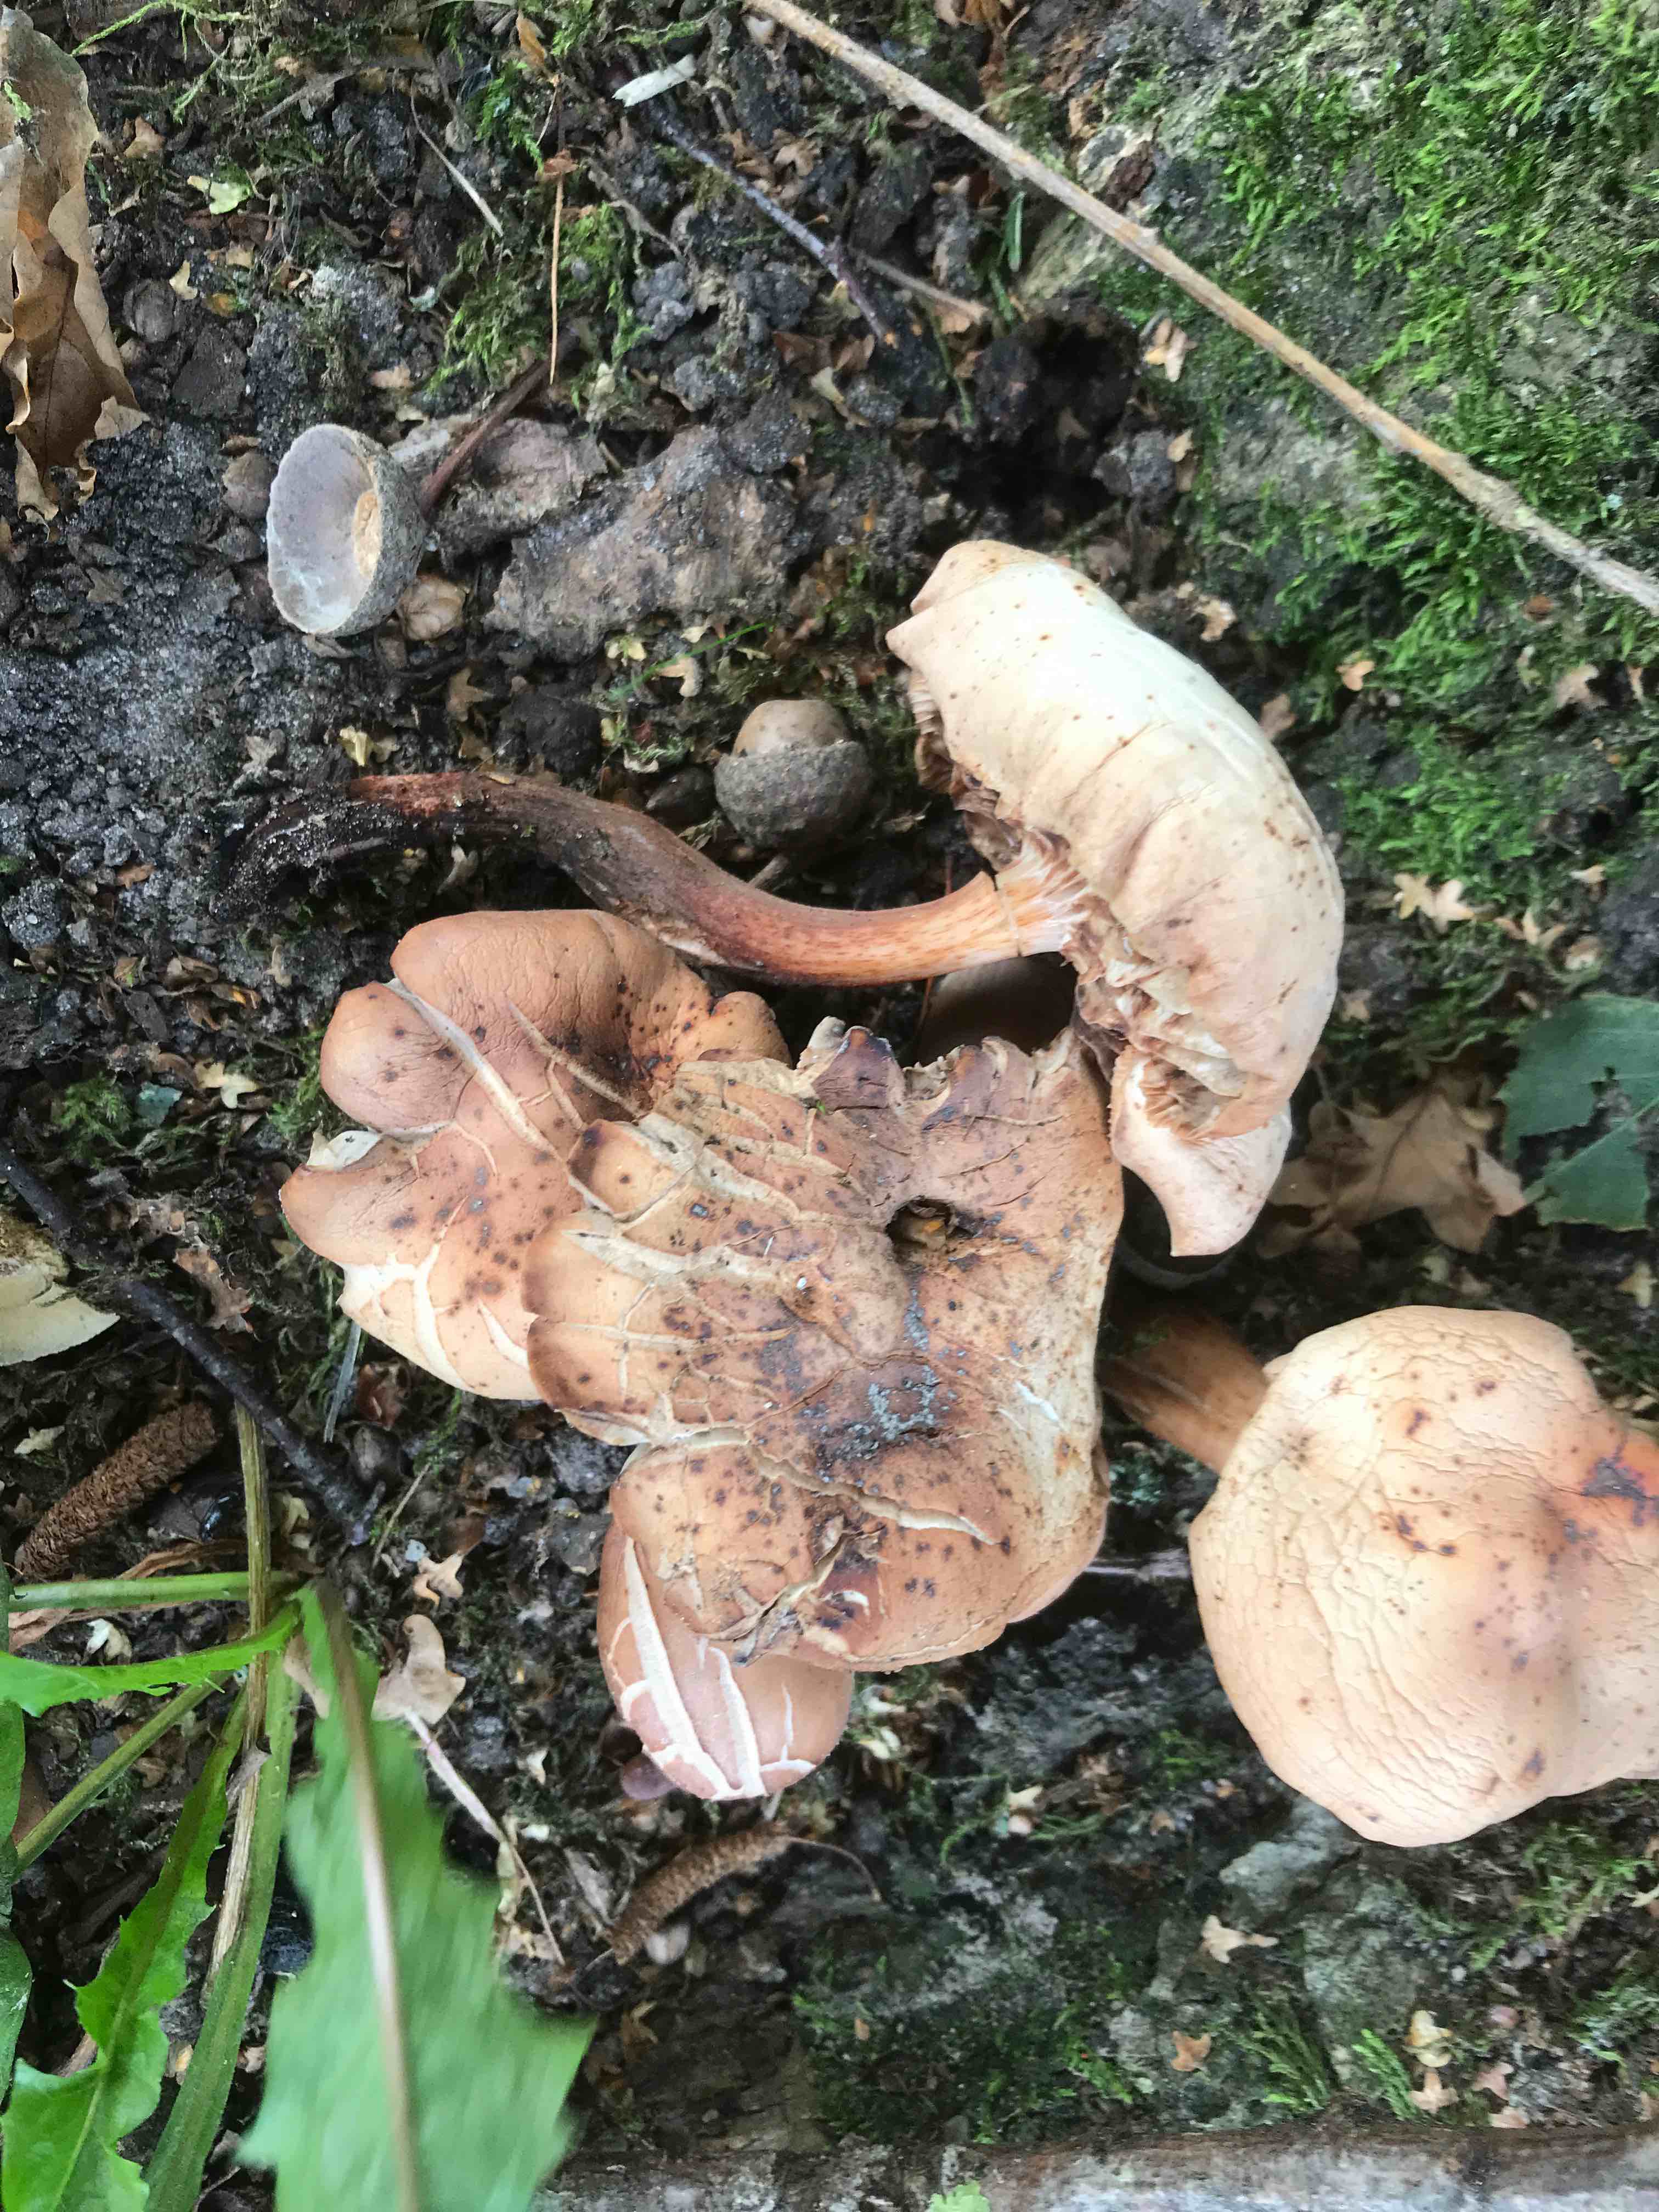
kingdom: Fungi
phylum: Basidiomycota
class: Agaricomycetes
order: Agaricales
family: Omphalotaceae
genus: Gymnopus
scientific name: Gymnopus fusipes
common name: tenstokket fladhat
